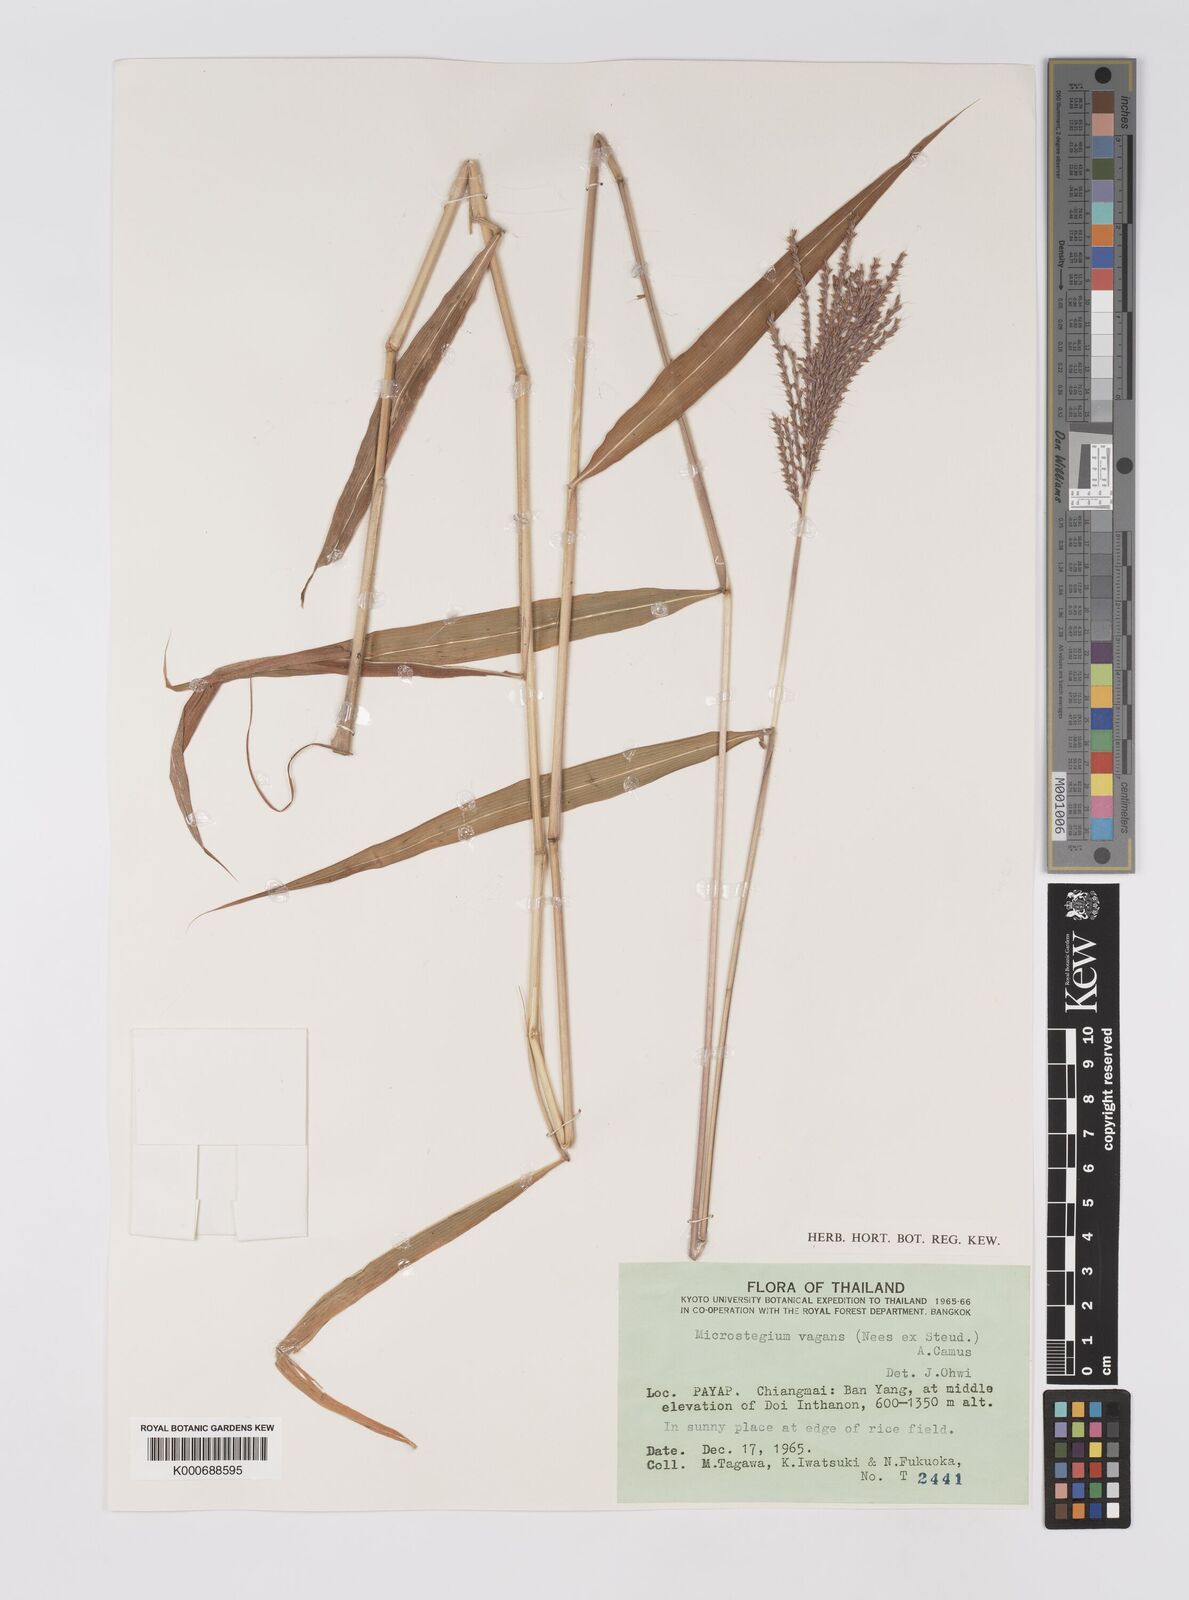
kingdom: Plantae
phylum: Tracheophyta
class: Liliopsida
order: Poales
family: Poaceae
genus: Microstegium
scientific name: Microstegium fasciculatum
